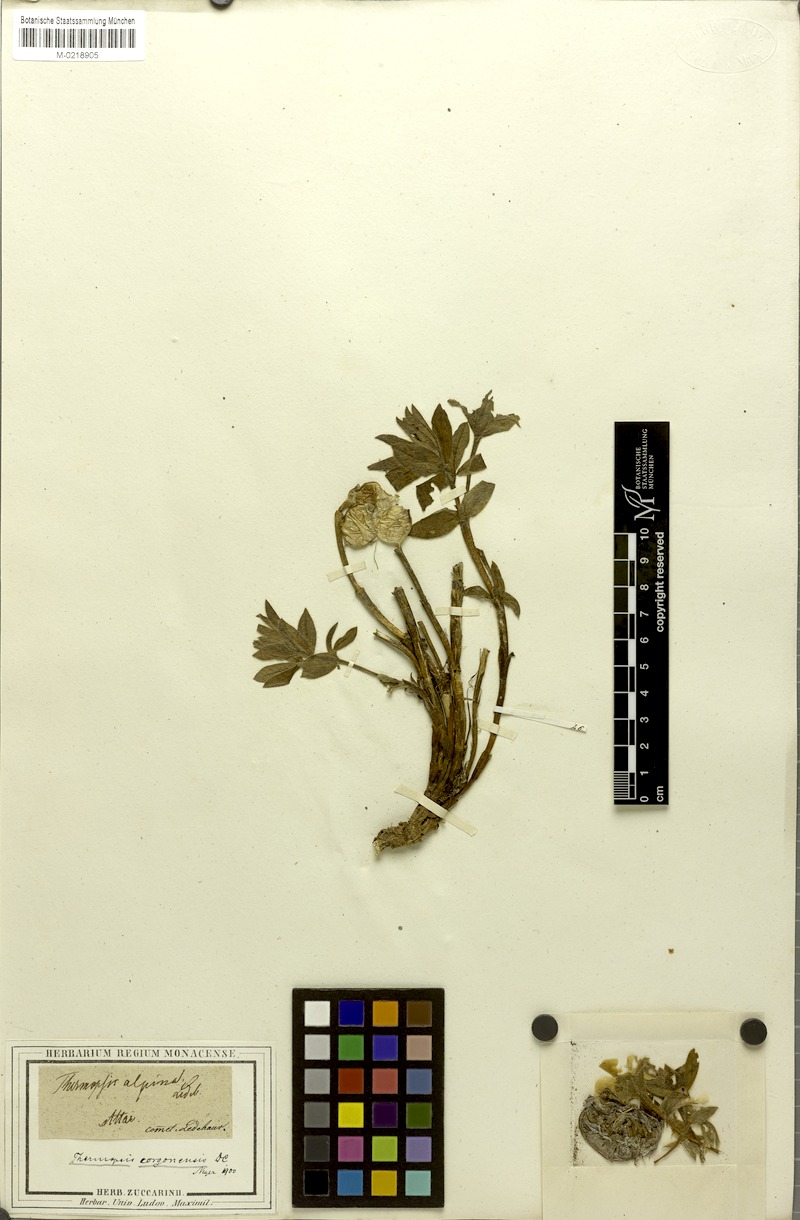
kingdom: Plantae
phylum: Tracheophyta
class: Magnoliopsida
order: Fabales
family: Fabaceae
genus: Thermopsis
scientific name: Thermopsis alpina
